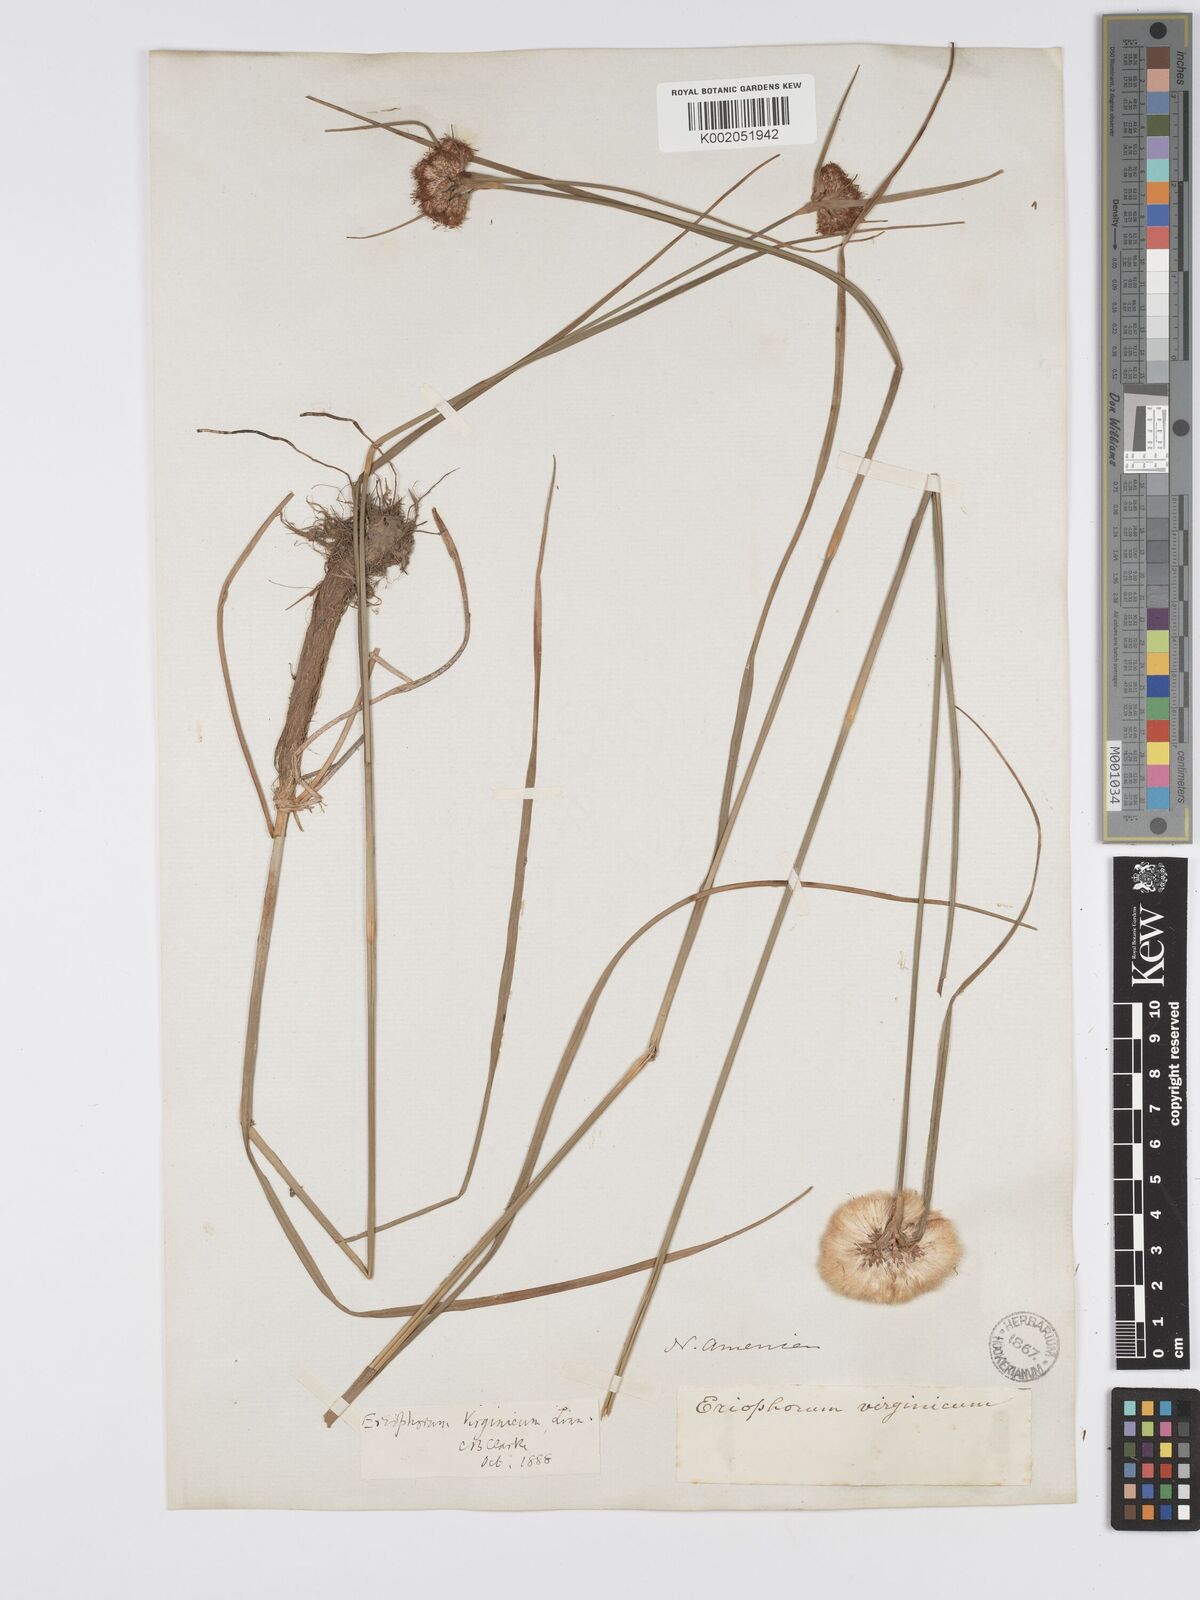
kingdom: Plantae
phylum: Tracheophyta
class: Liliopsida
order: Poales
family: Cyperaceae
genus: Eriophorum
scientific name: Eriophorum virginicum
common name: Tawny cottongrass
